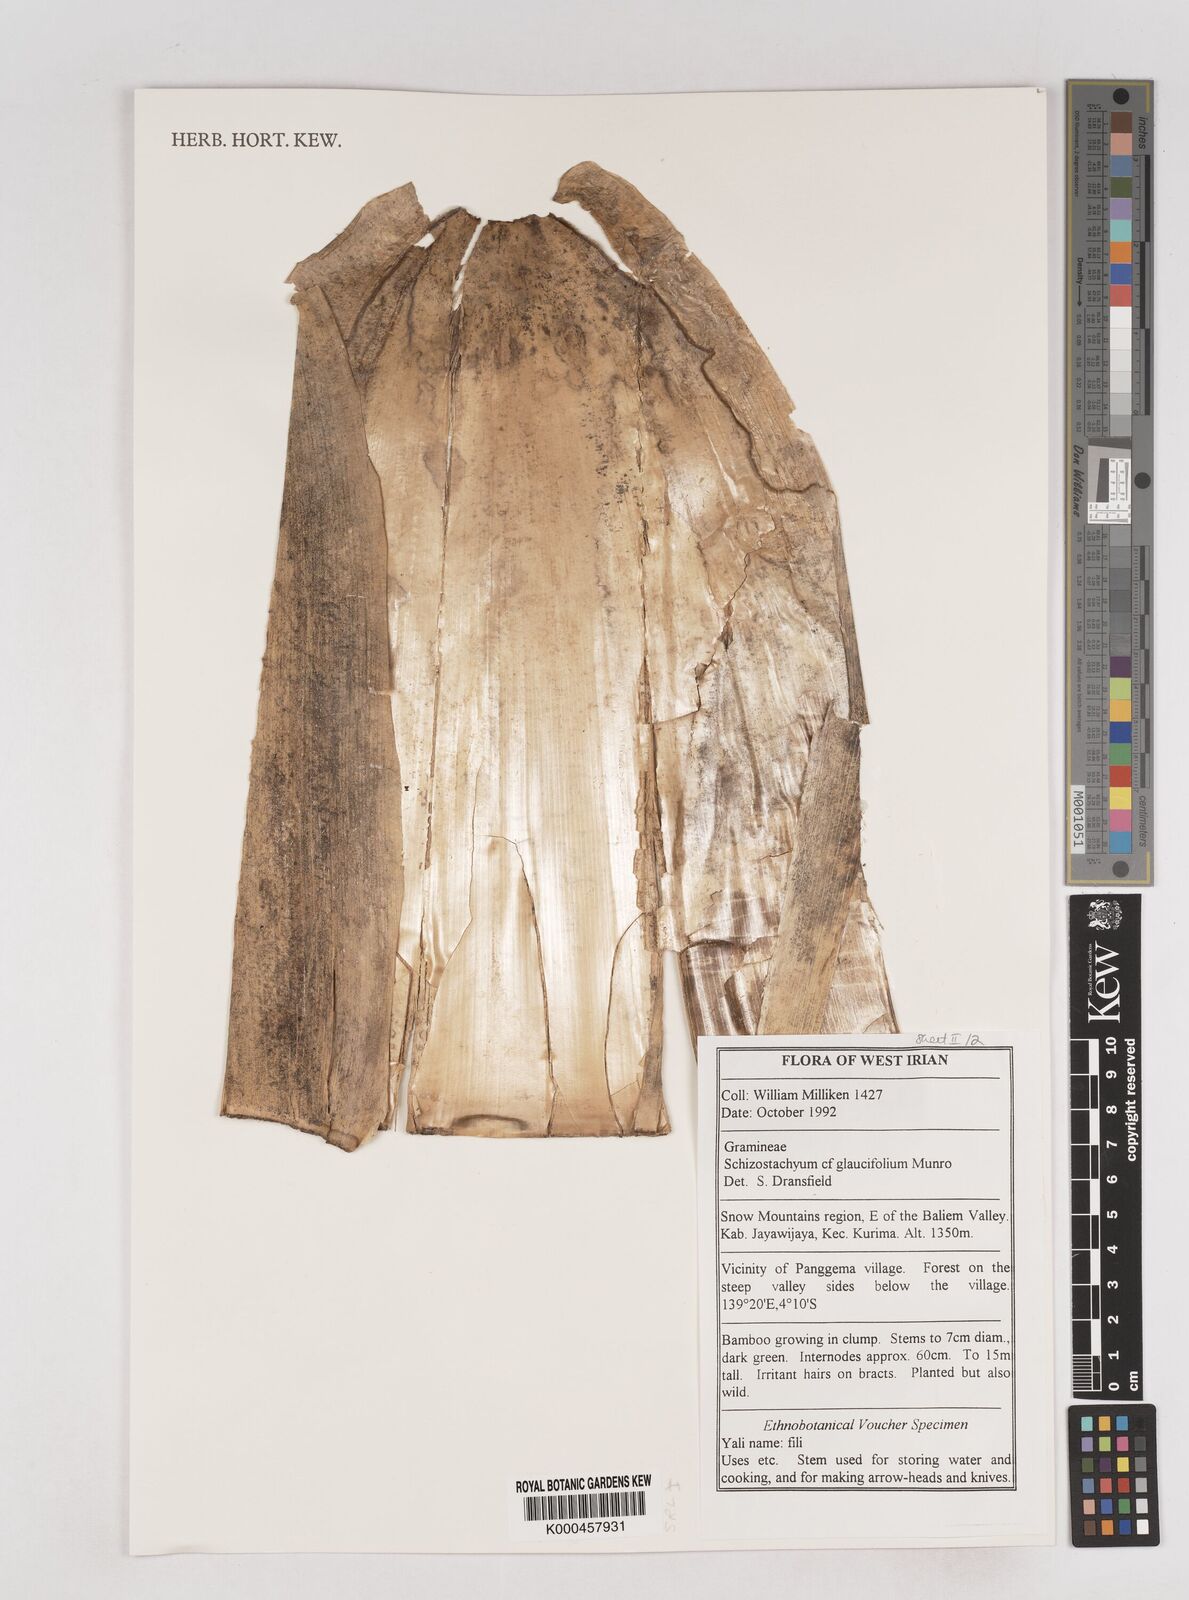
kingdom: Plantae
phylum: Tracheophyta
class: Liliopsida
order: Poales
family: Poaceae
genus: Schizostachyum
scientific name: Schizostachyum glaucifolium
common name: Polynesian 'ohe
